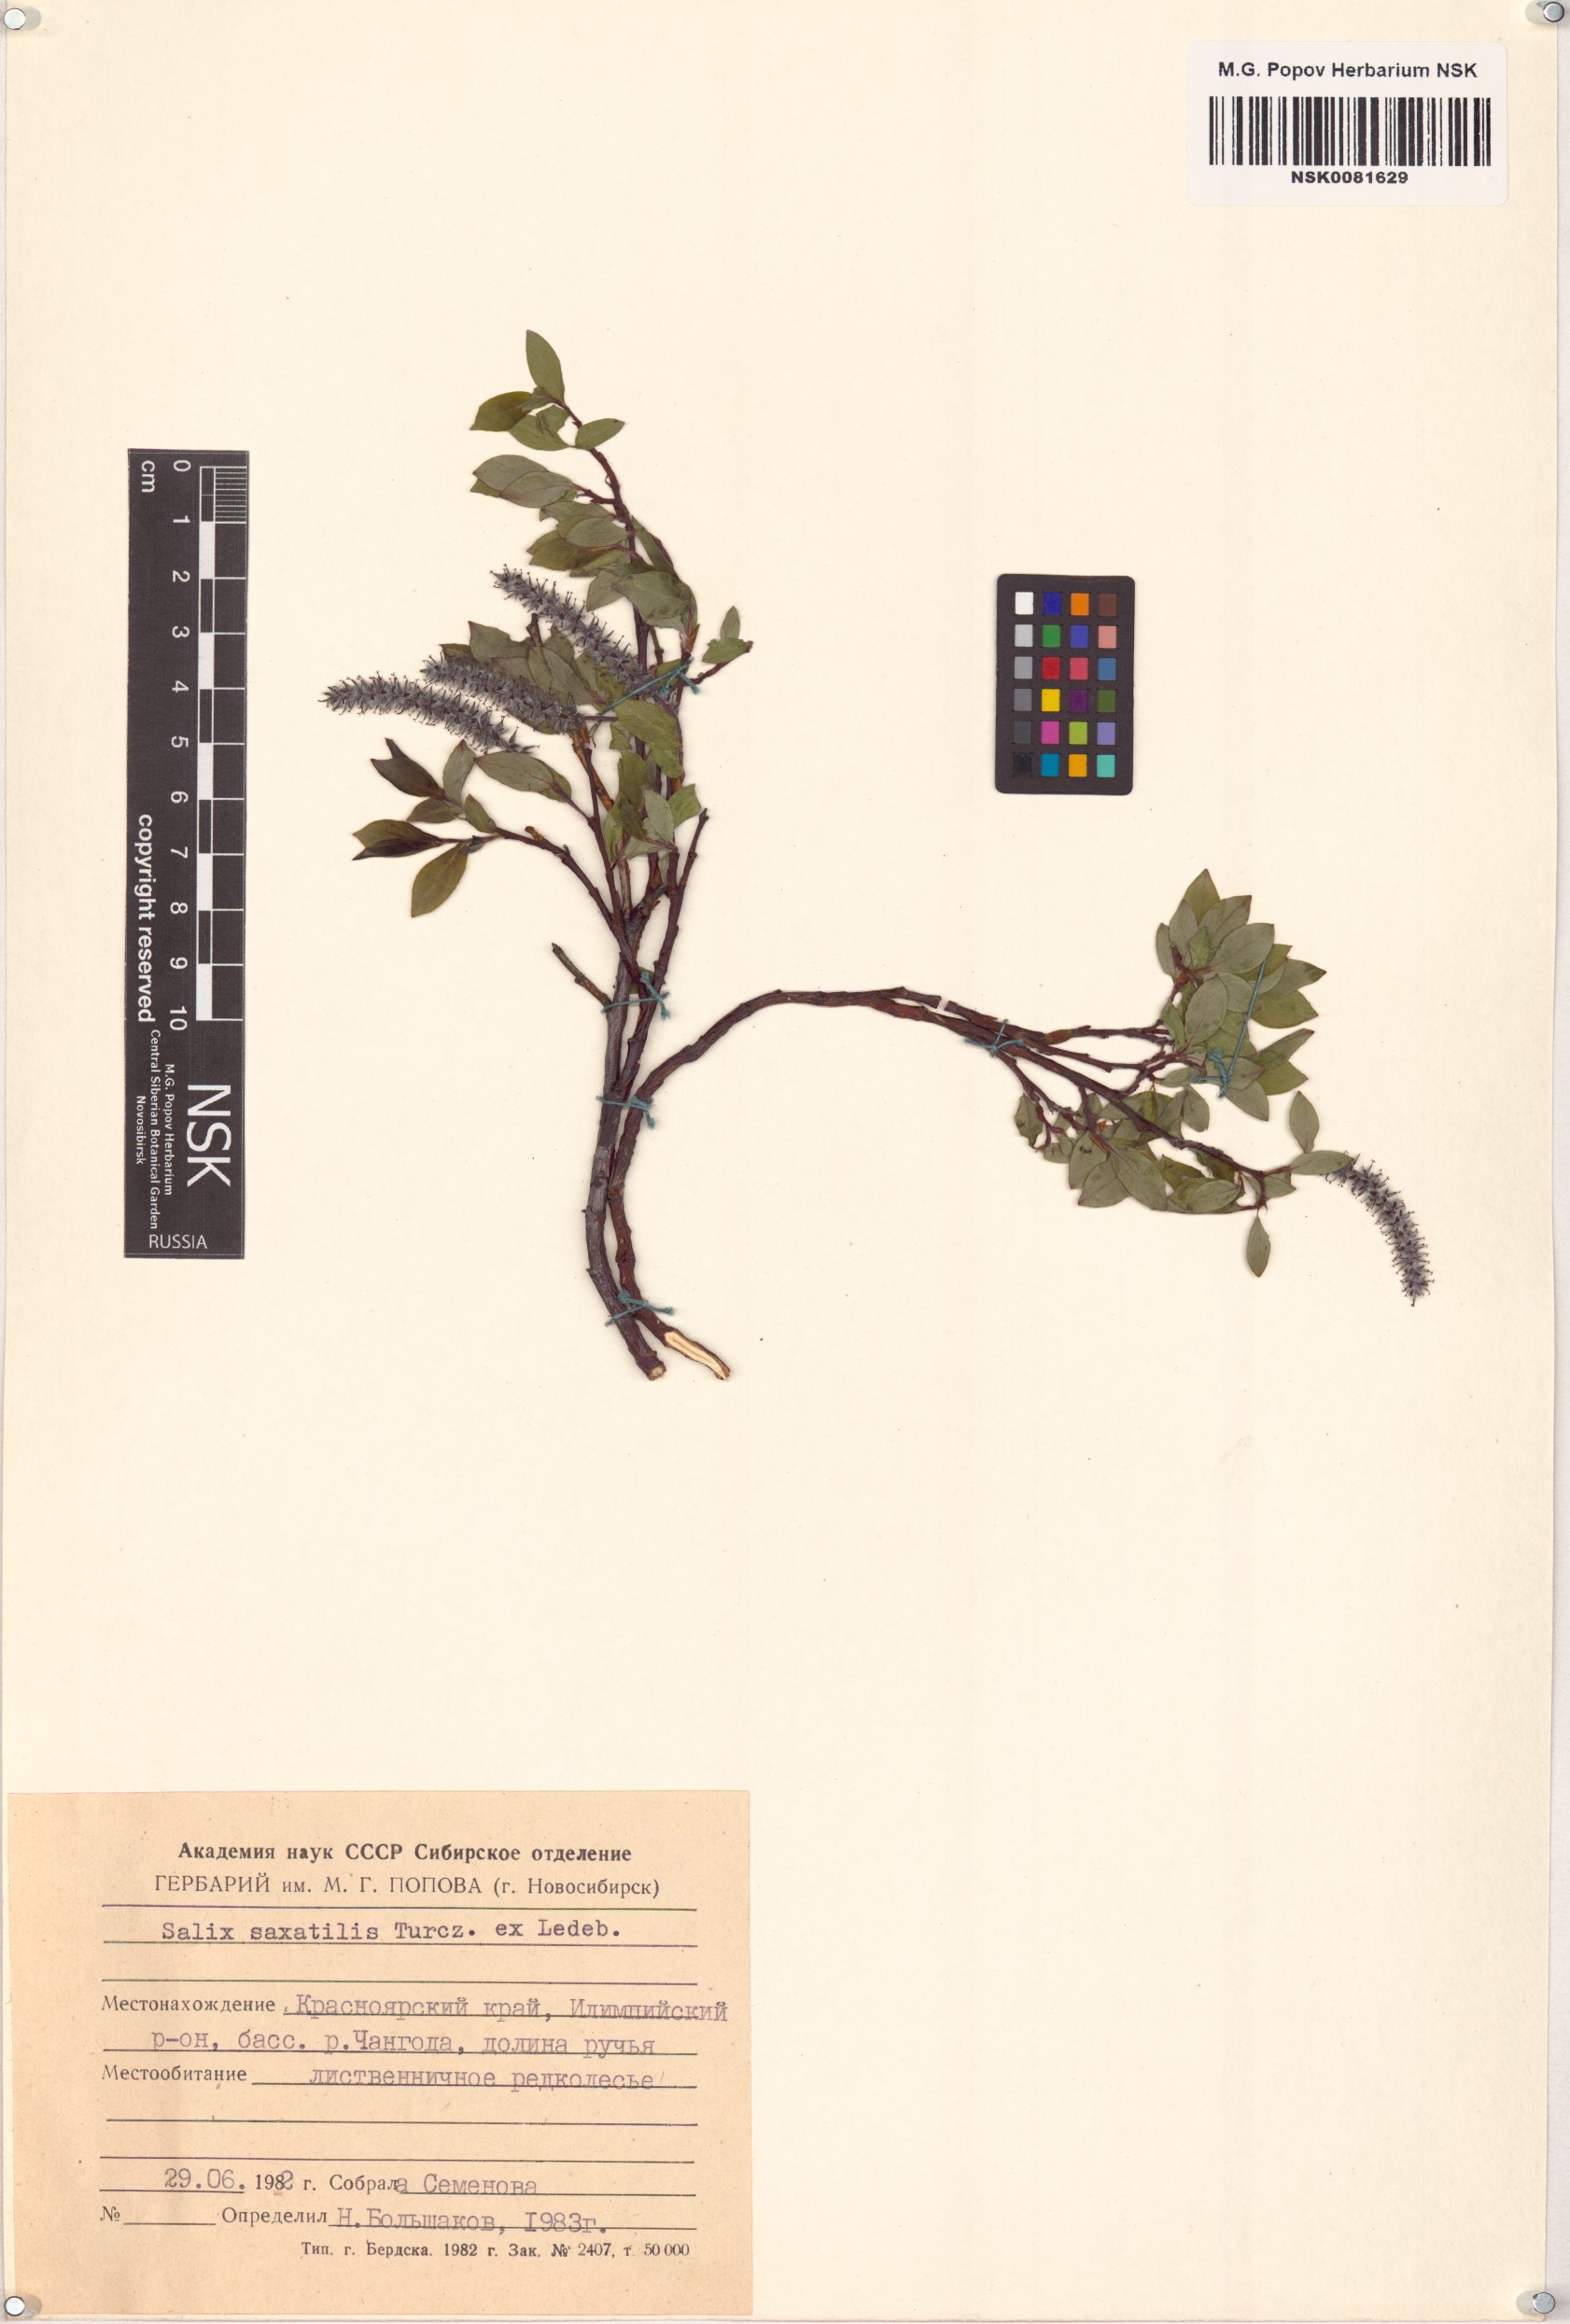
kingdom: Plantae
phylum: Tracheophyta
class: Magnoliopsida
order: Malpighiales
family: Salicaceae
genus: Salix
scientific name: Salix saxatilis
